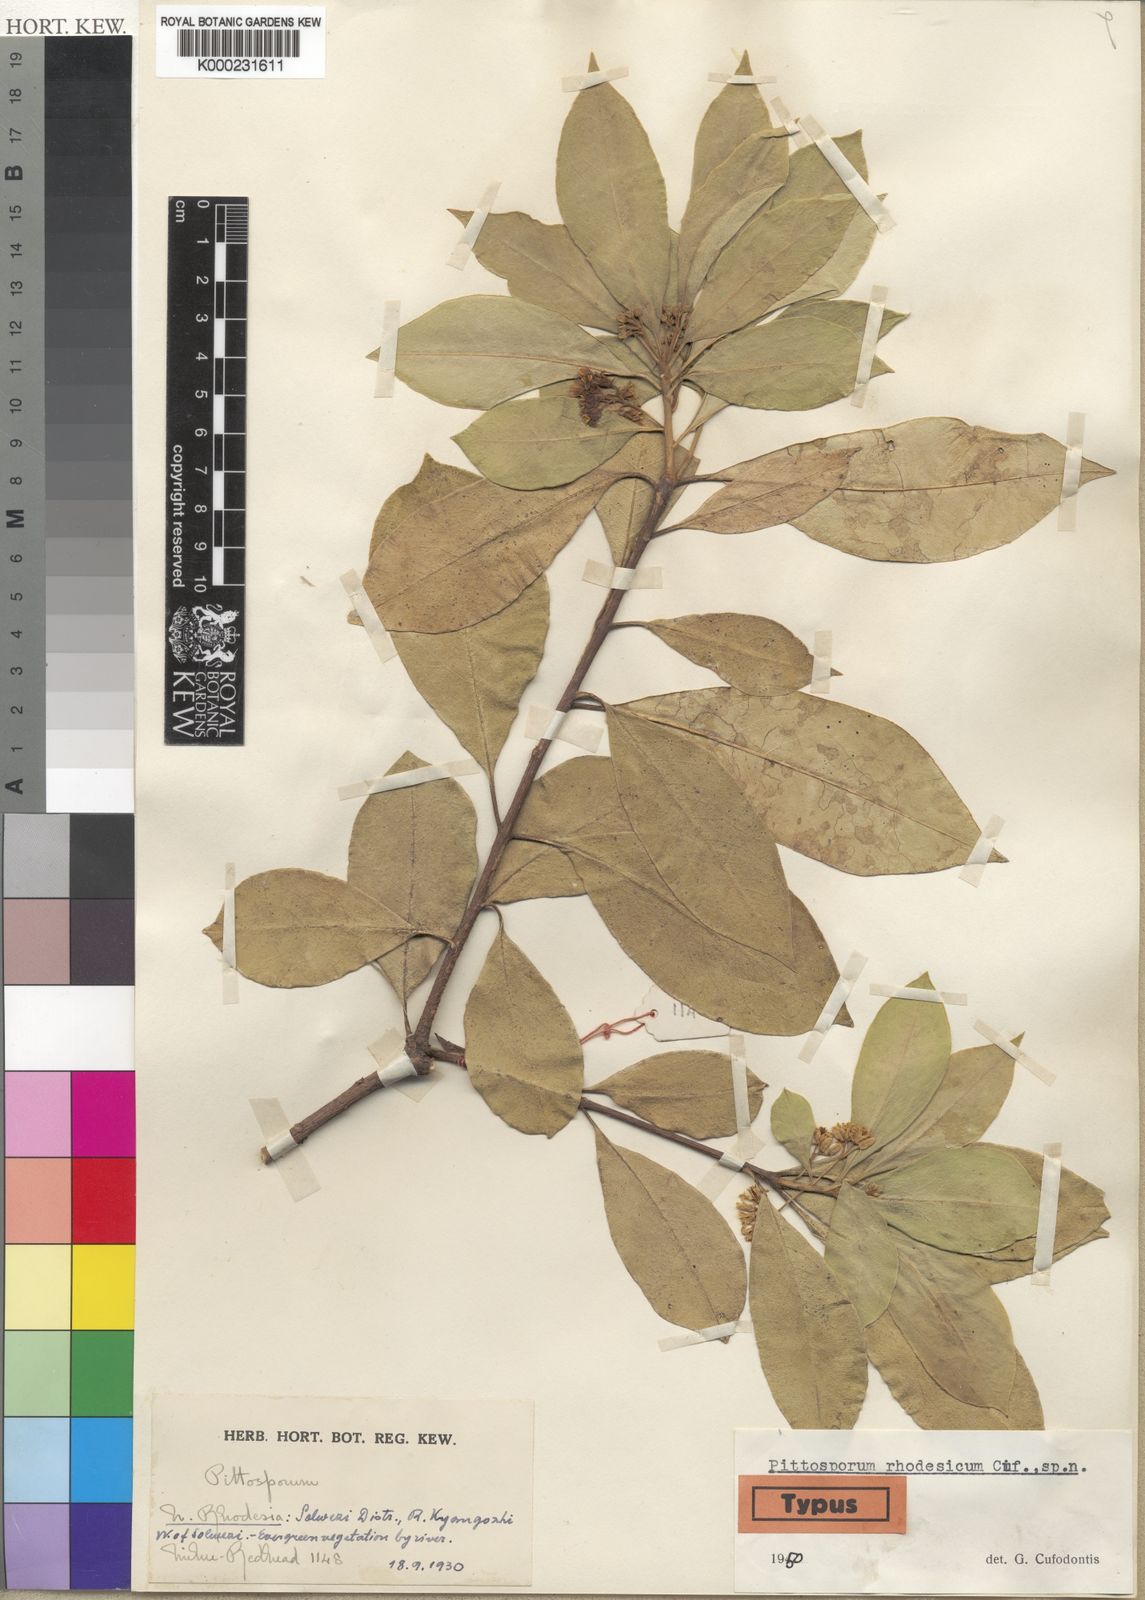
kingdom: Plantae
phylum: Tracheophyta
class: Magnoliopsida
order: Apiales
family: Pittosporaceae
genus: Pittosporum
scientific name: Pittosporum viridiflorum
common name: Cape cheesewood
